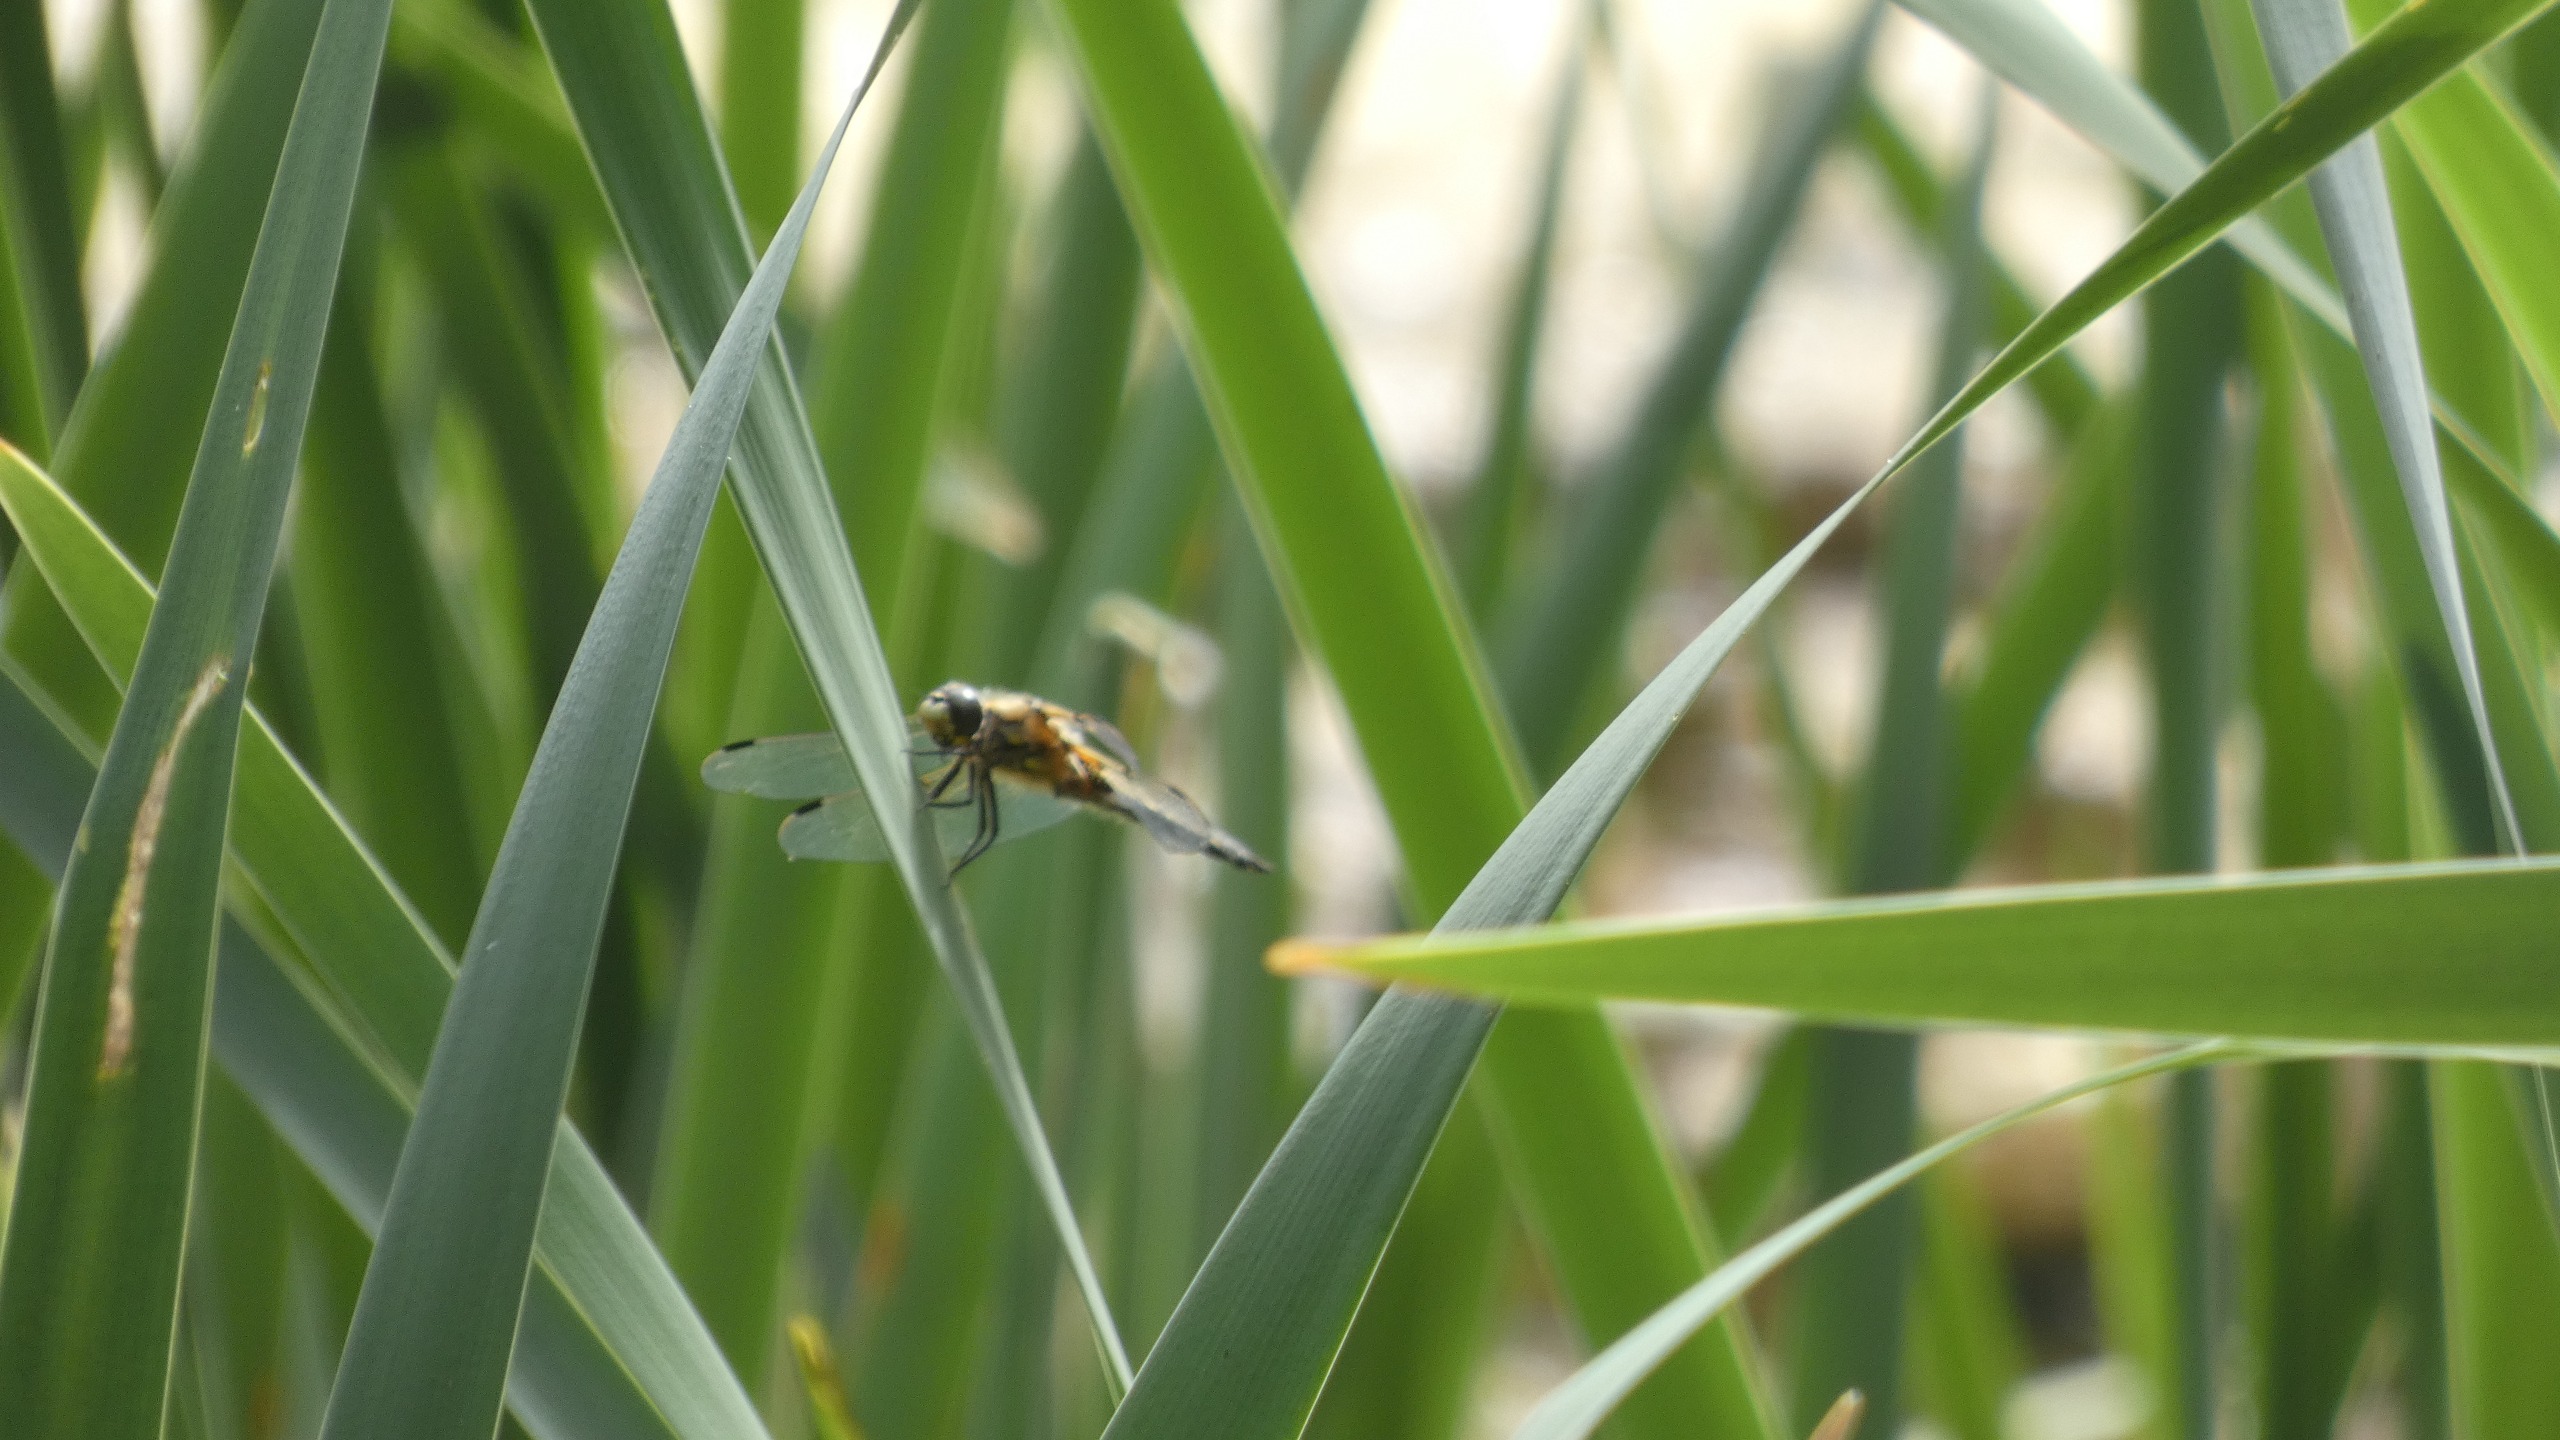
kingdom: Animalia
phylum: Arthropoda
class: Insecta
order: Odonata
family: Libellulidae
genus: Libellula
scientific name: Libellula quadrimaculata
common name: Fireplettet libel
